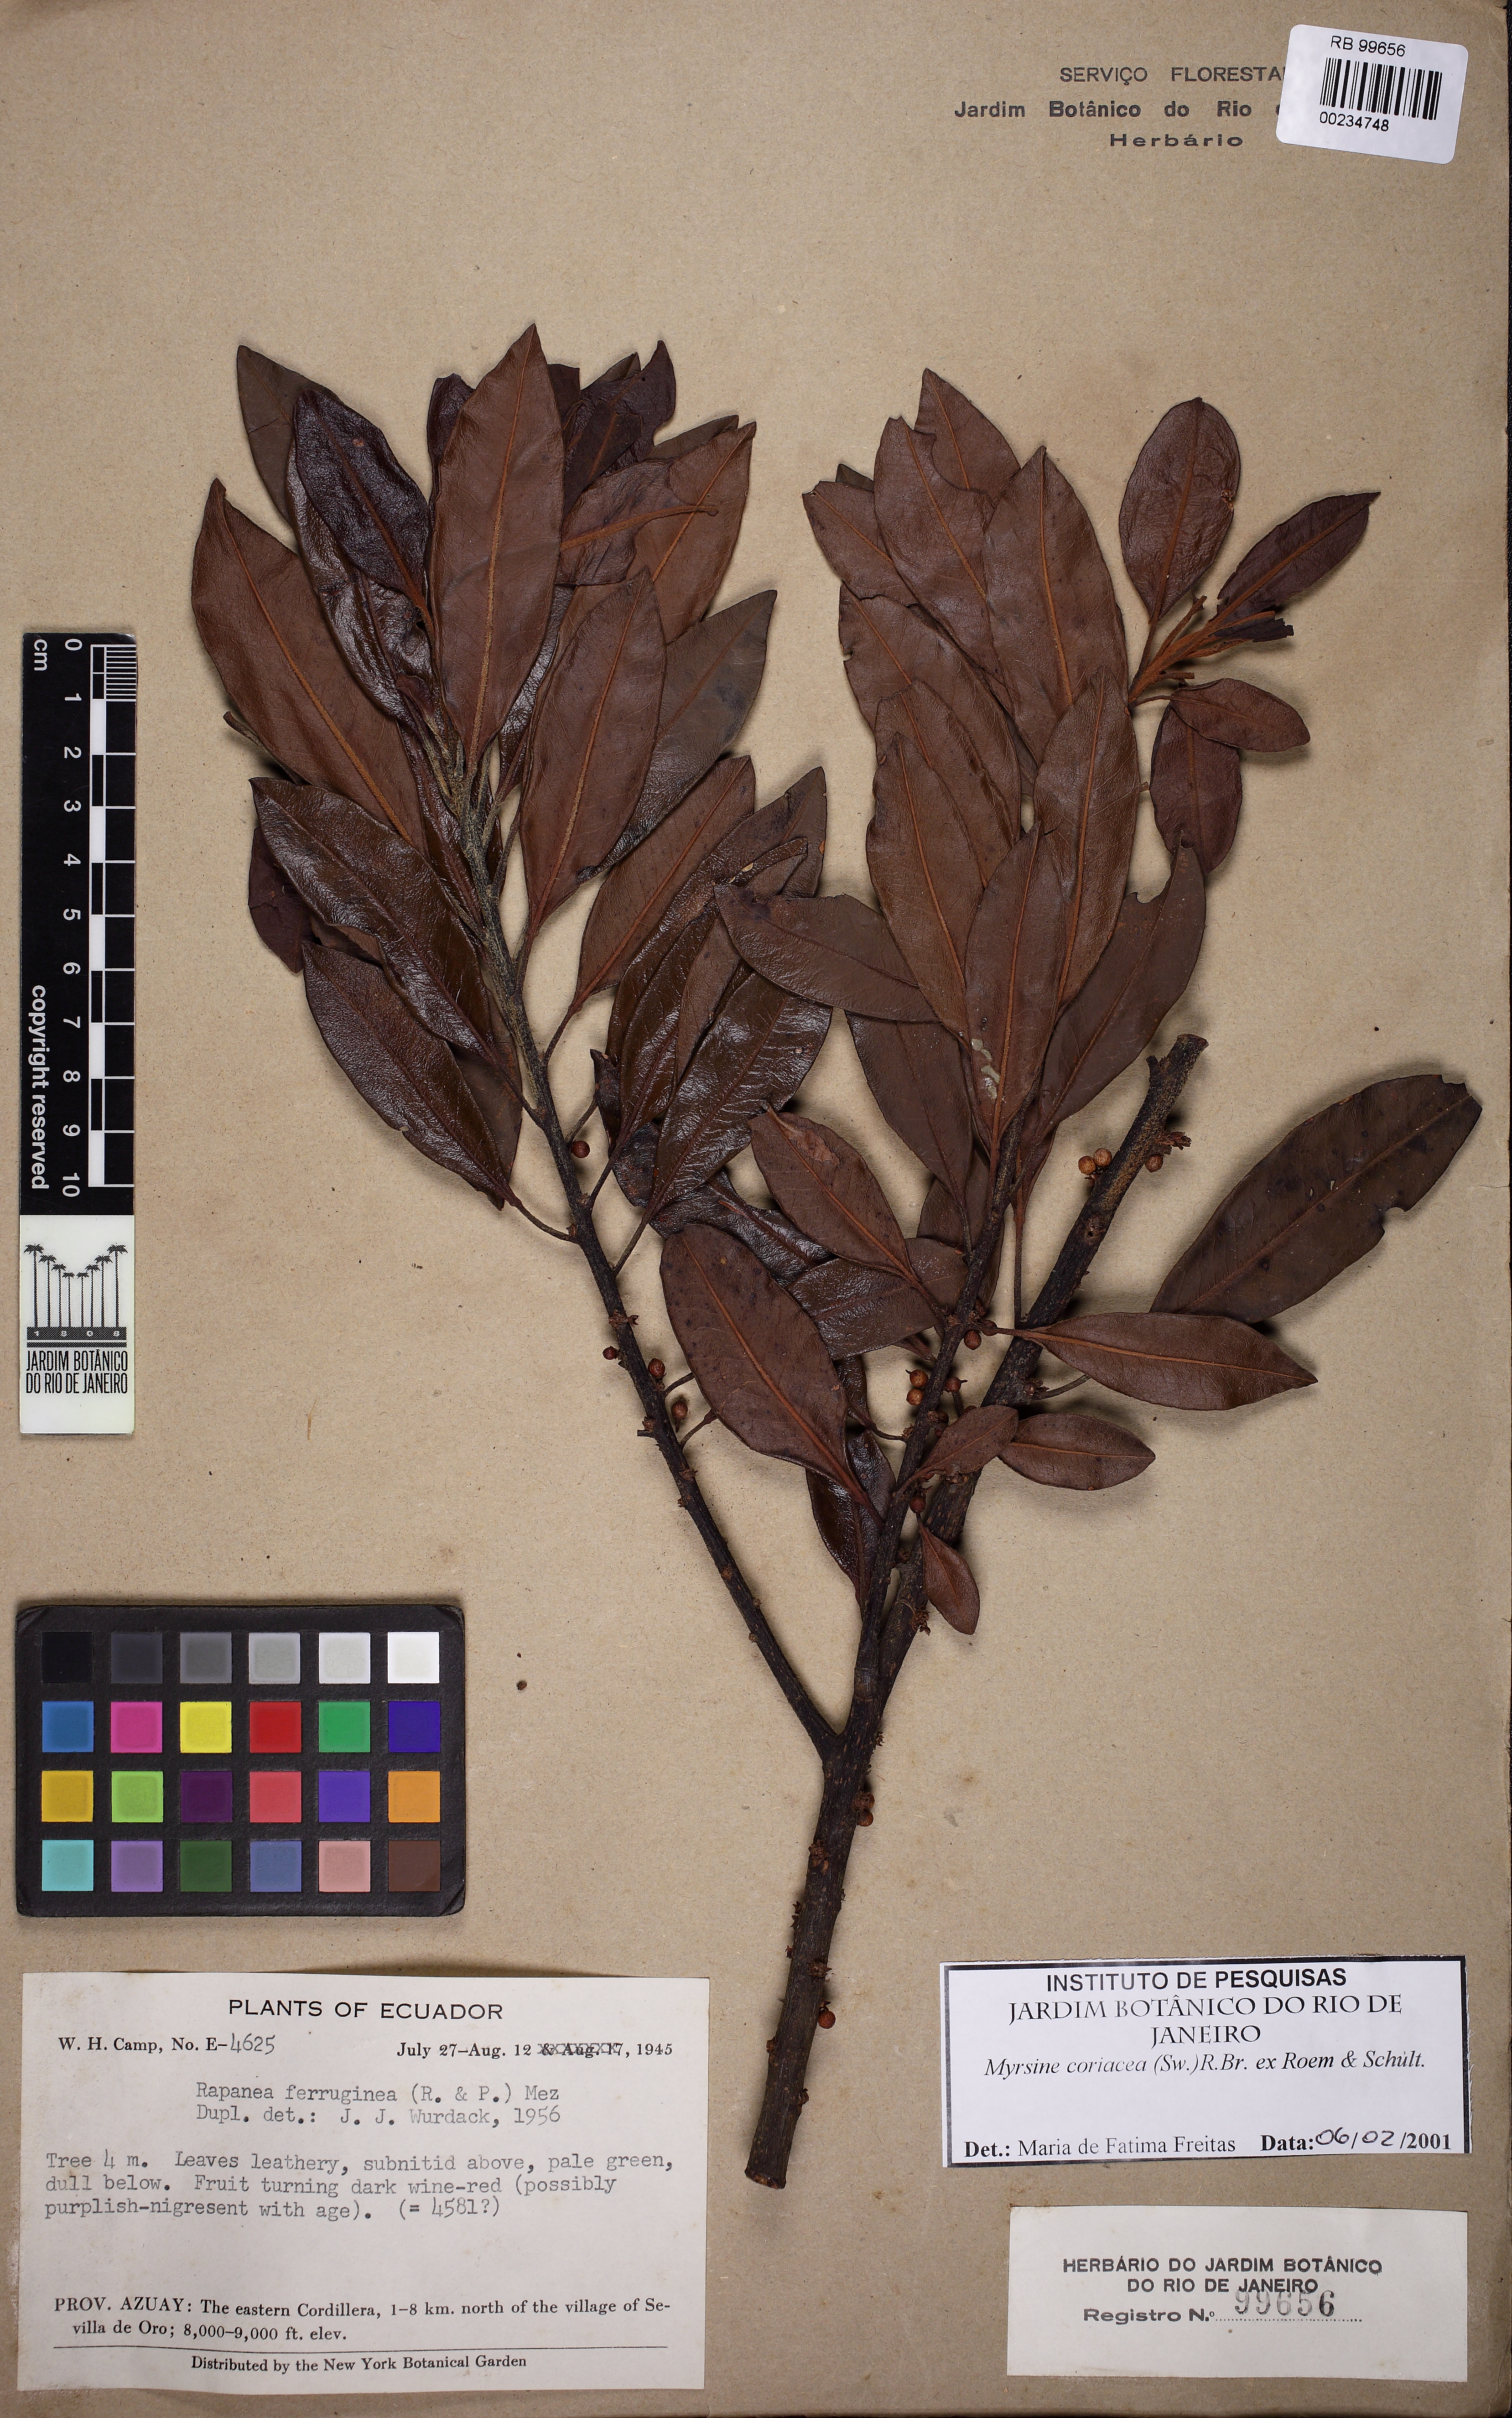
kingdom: Plantae
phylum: Tracheophyta
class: Magnoliopsida
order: Ericales
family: Primulaceae
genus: Myrsine
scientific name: Myrsine coriacea
